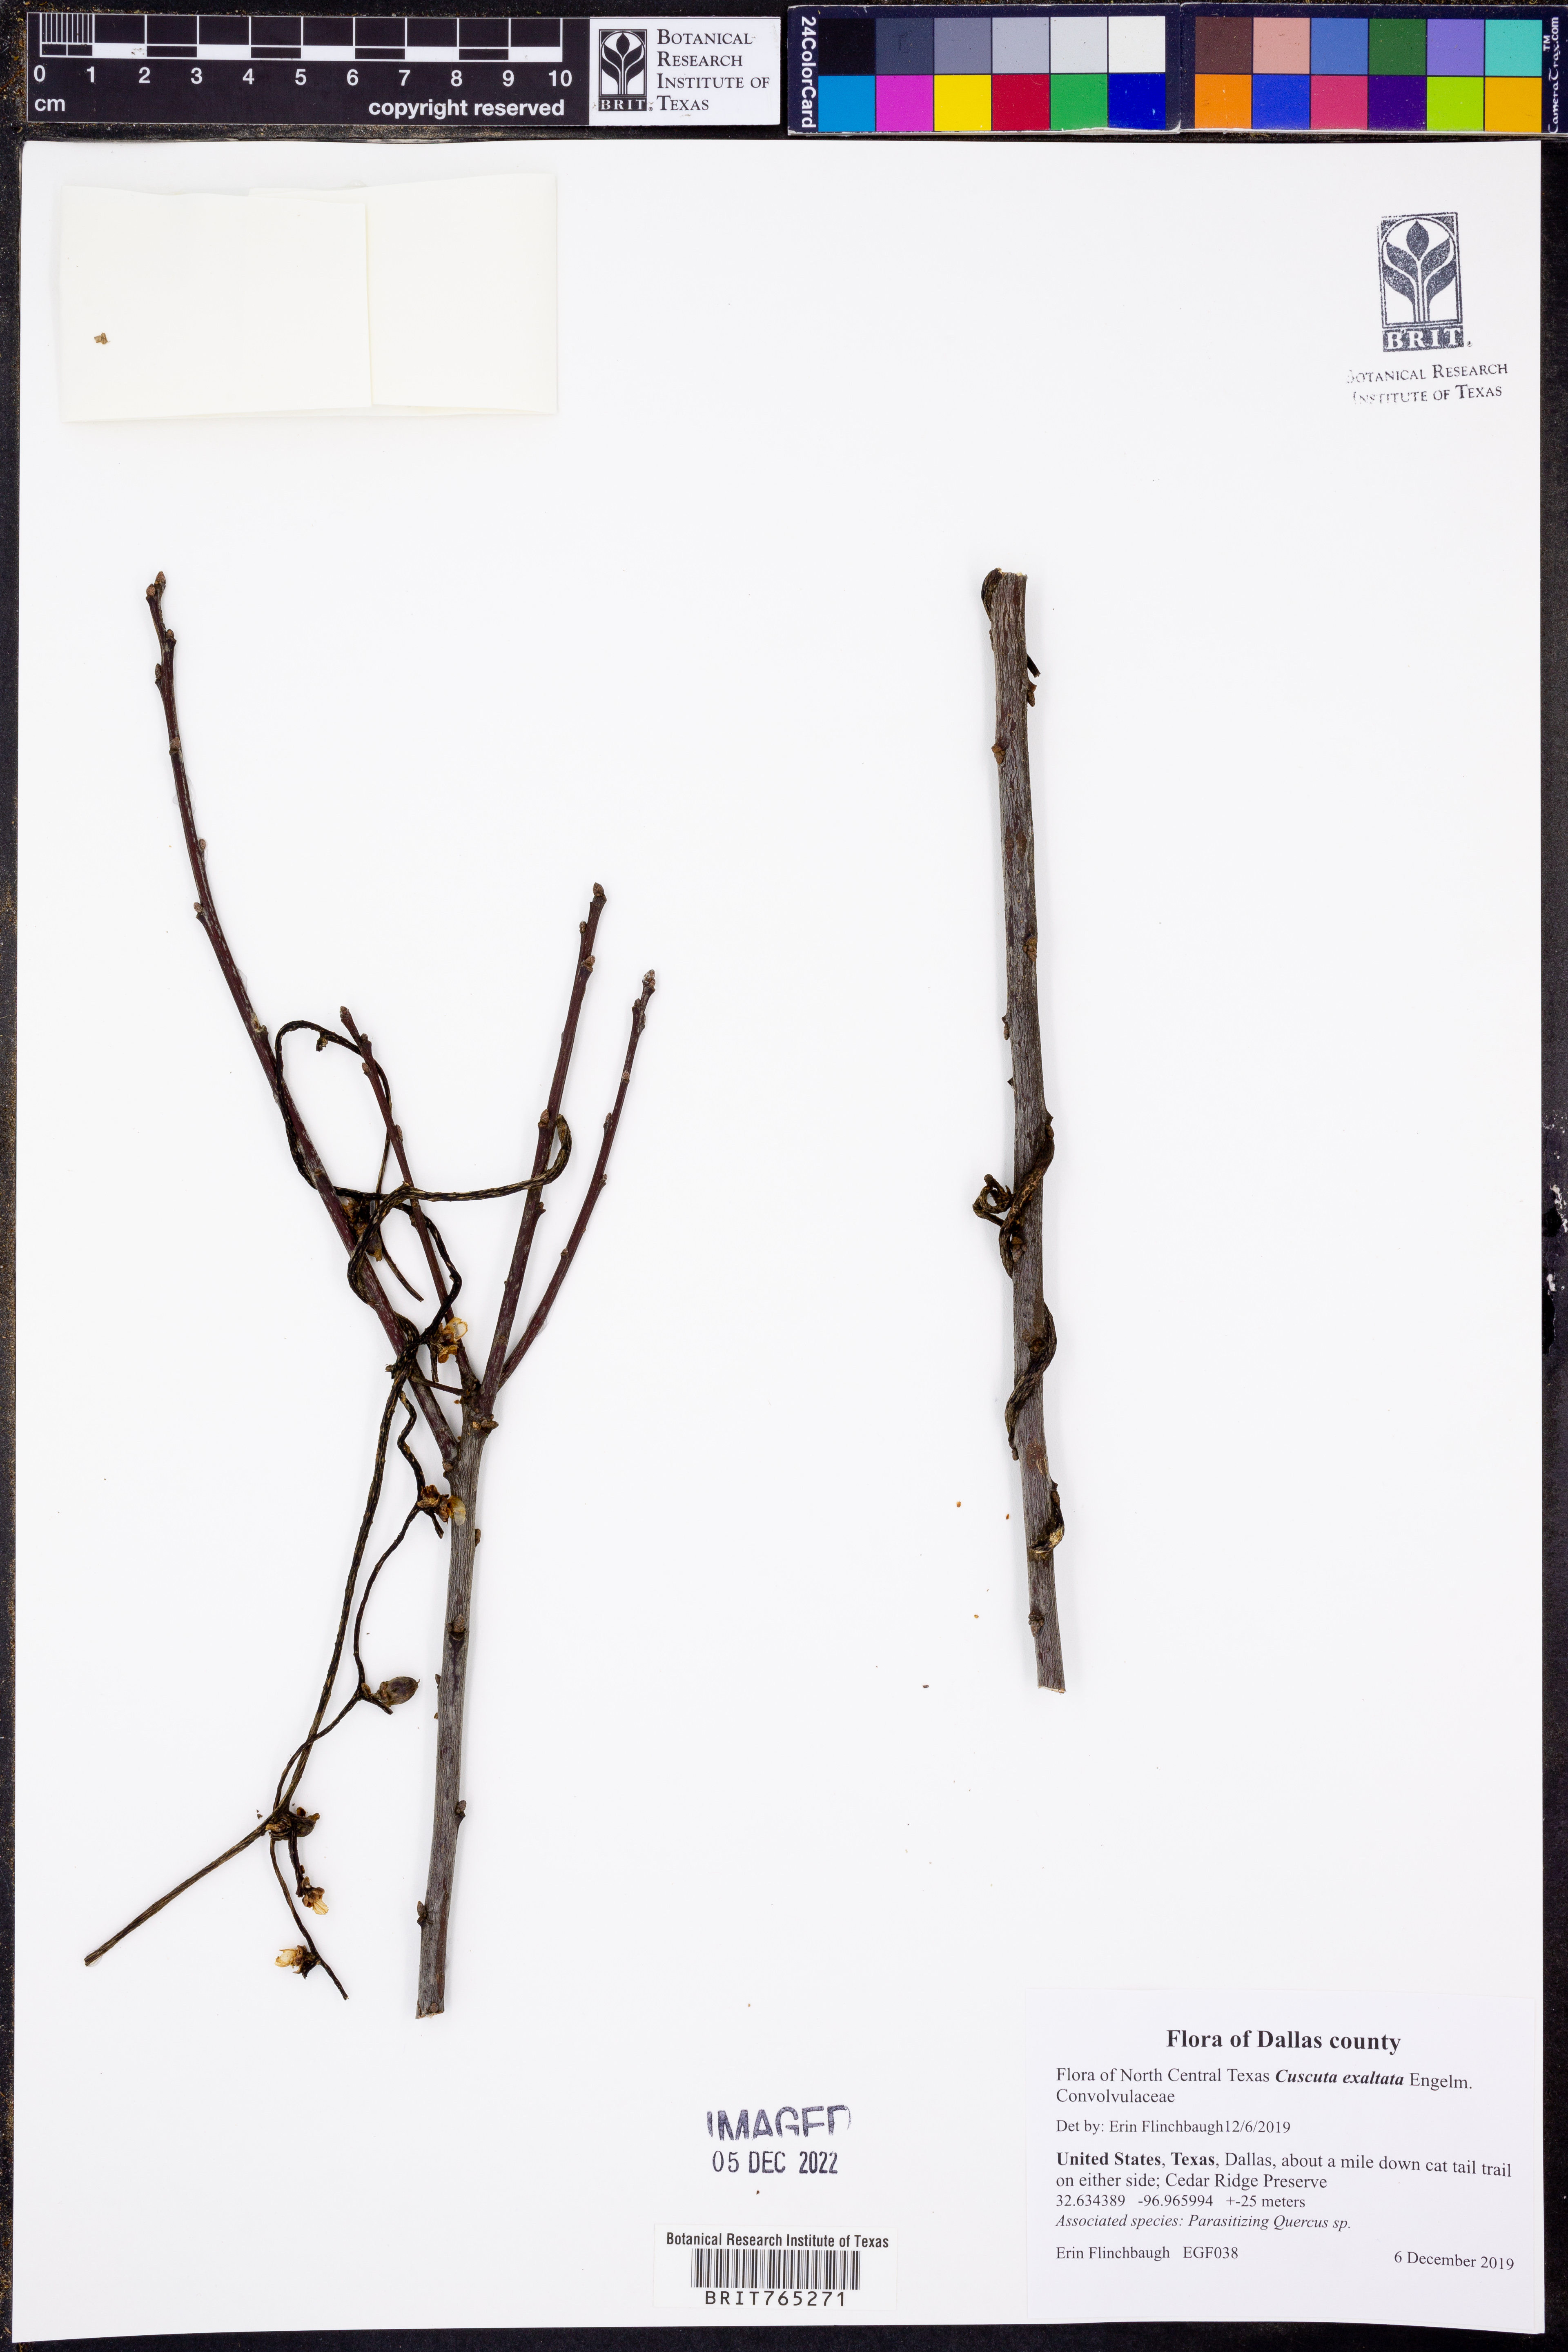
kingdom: Plantae
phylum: Tracheophyta
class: Magnoliopsida
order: Solanales
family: Convolvulaceae
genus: Cuscuta
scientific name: Cuscuta exaltata
